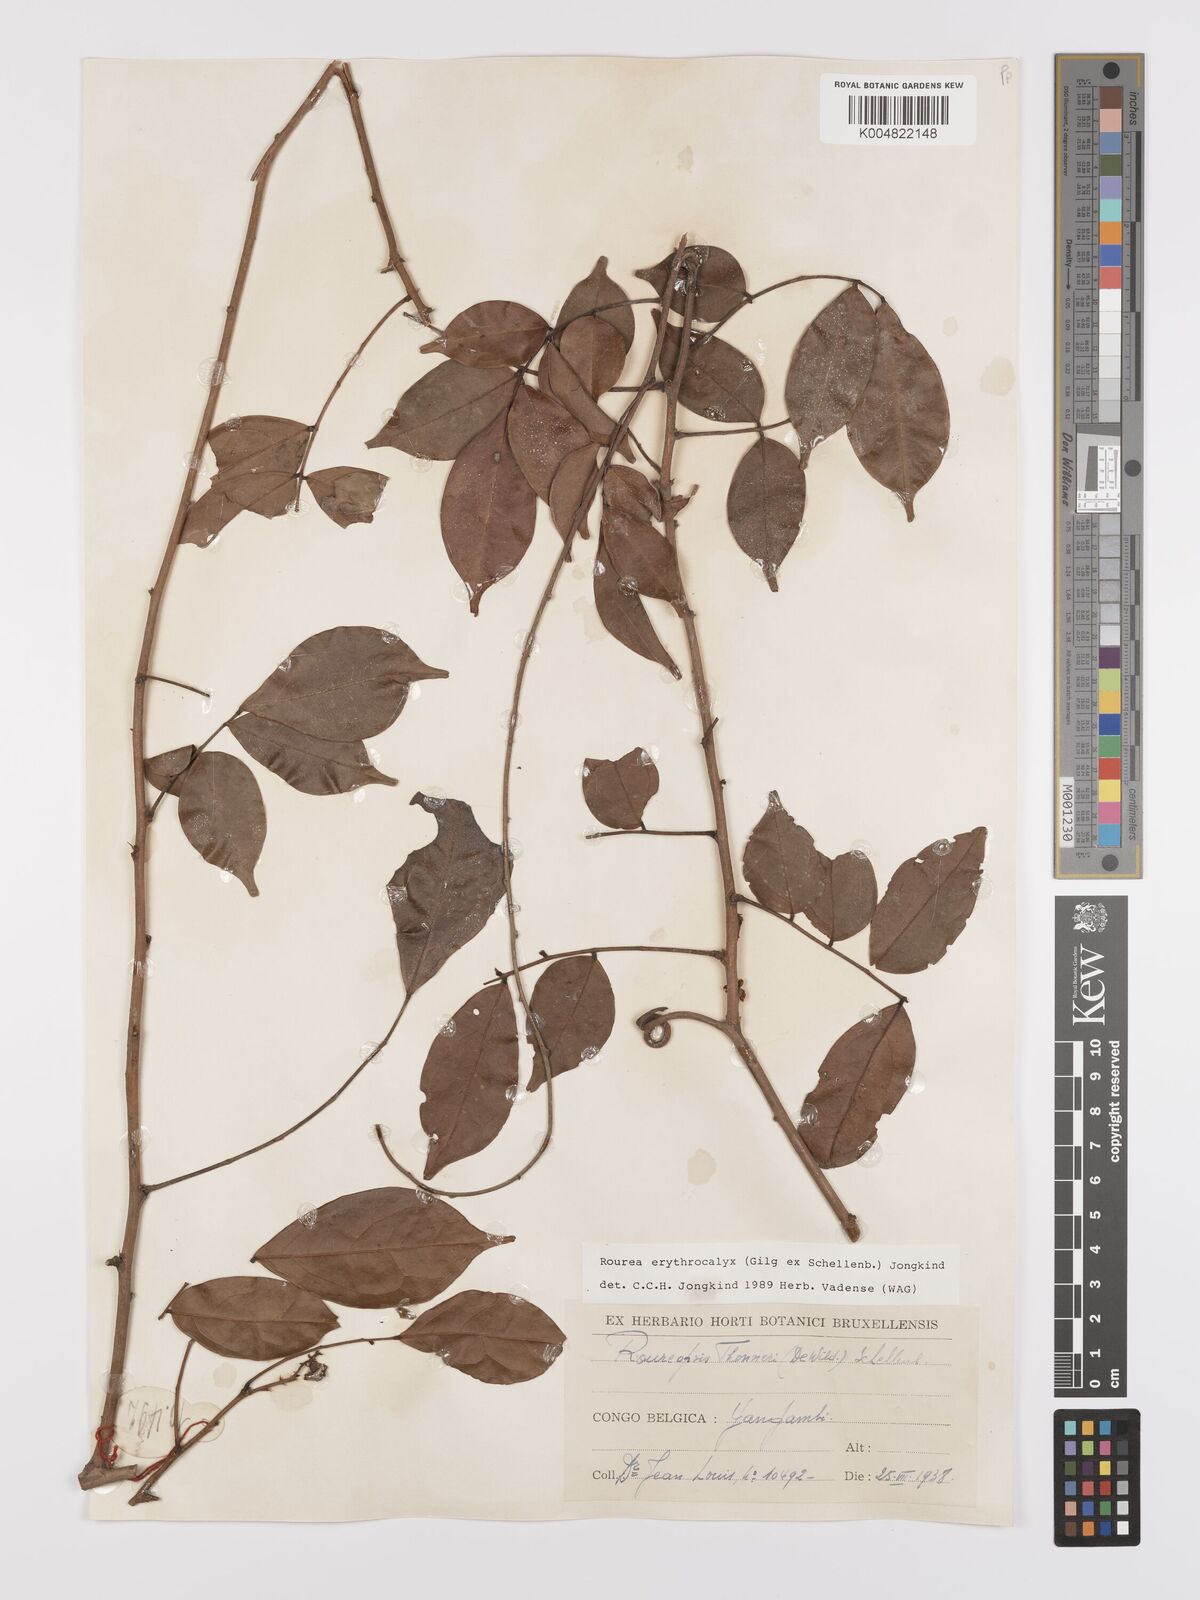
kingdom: Plantae
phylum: Tracheophyta
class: Magnoliopsida
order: Oxalidales
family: Connaraceae
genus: Rourea
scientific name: Rourea erythrocalyx
